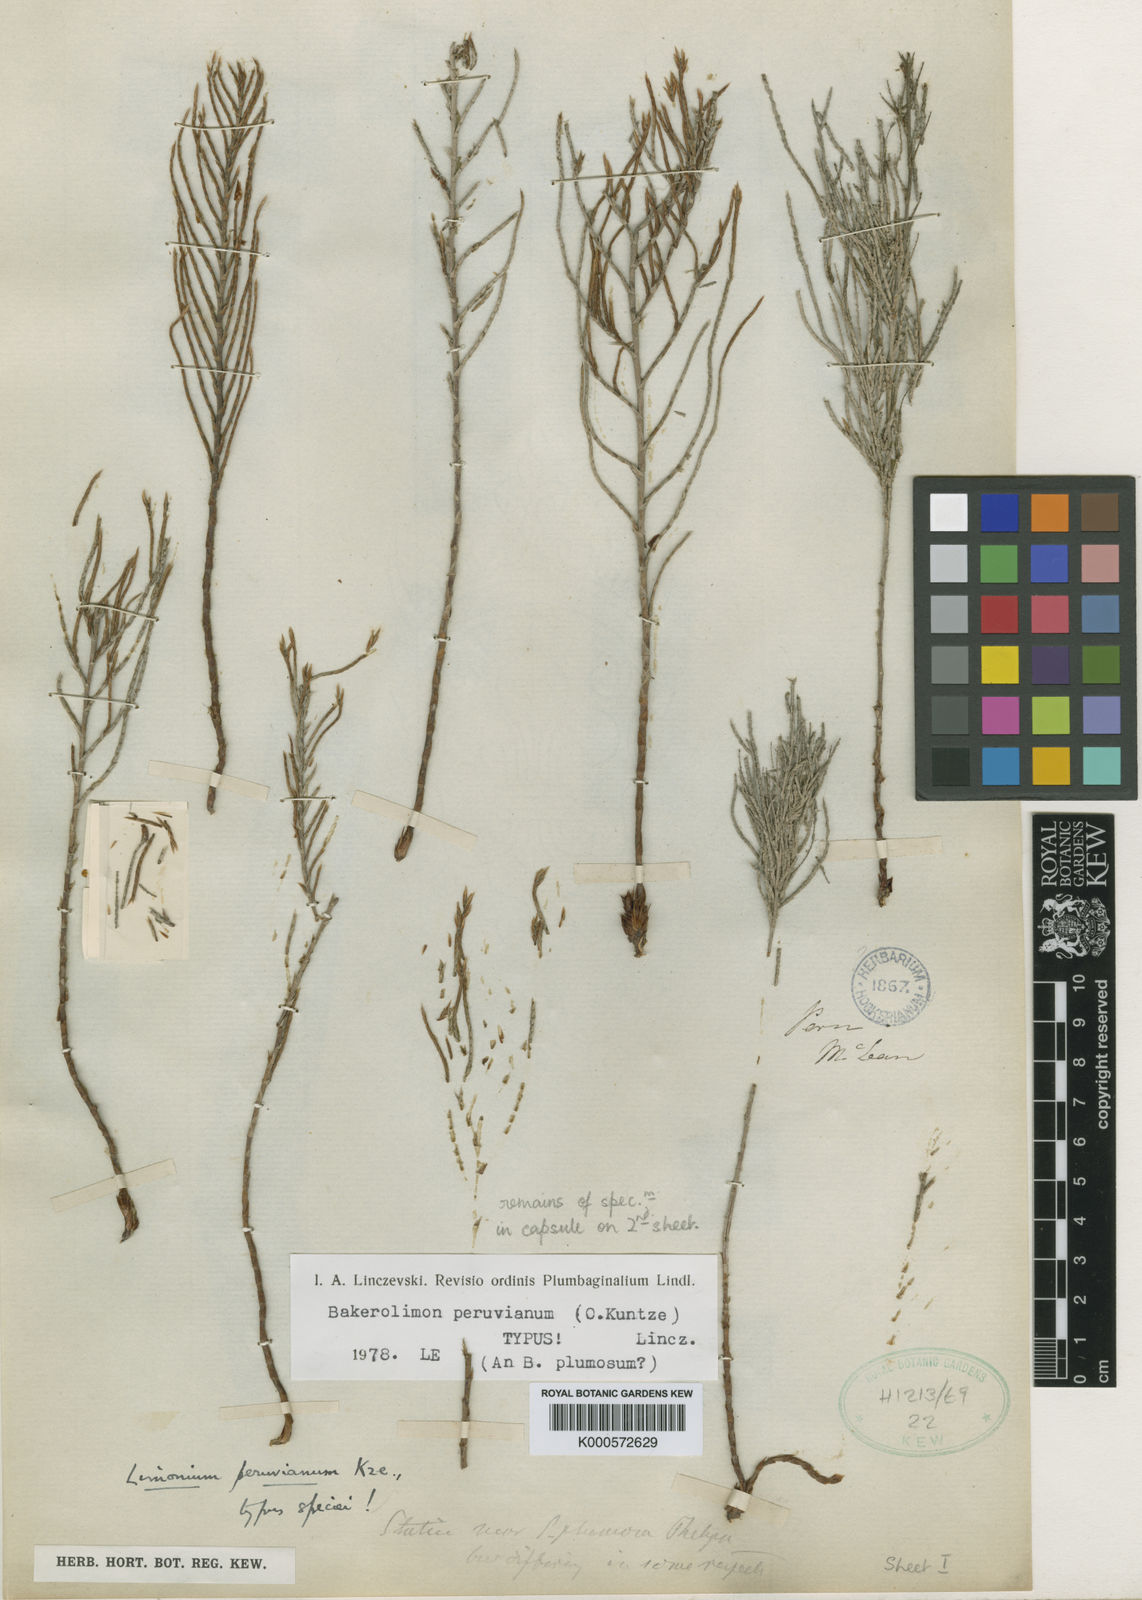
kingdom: Plantae
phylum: Tracheophyta
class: Magnoliopsida
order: Caryophyllales
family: Plumbaginaceae
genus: Bakerolimon
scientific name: Bakerolimon peruvianum
